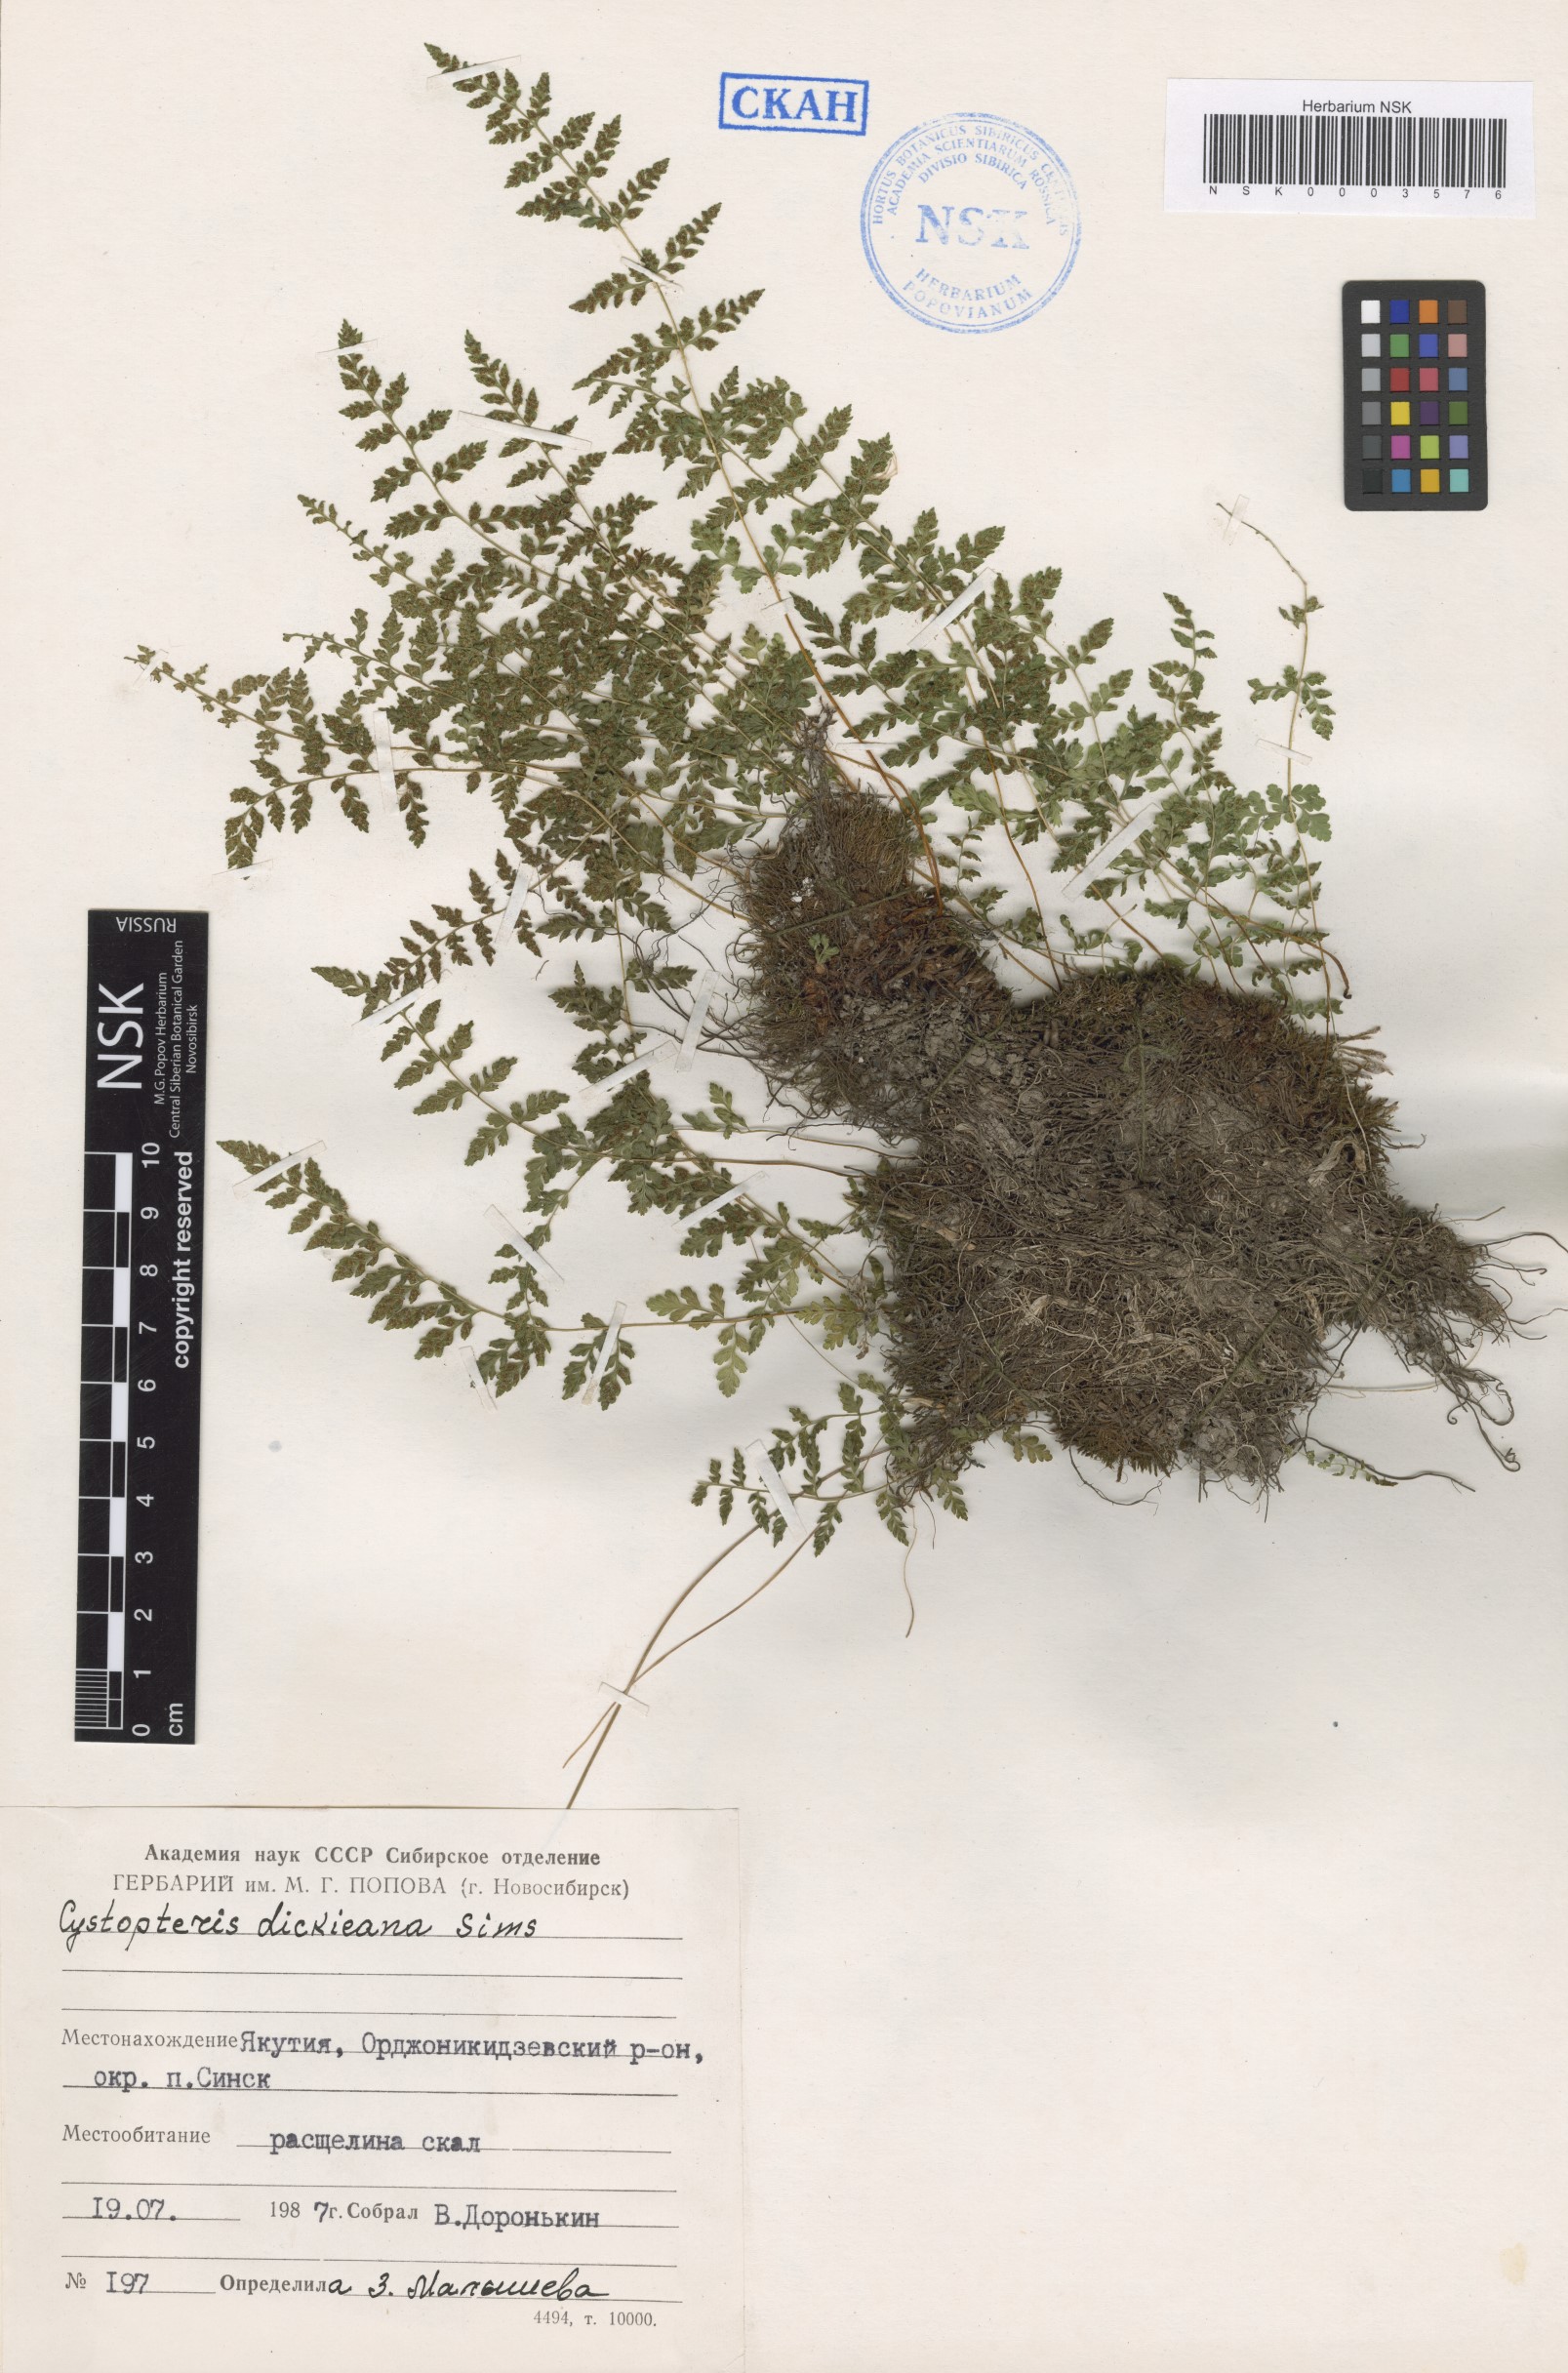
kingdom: Plantae
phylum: Tracheophyta
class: Polypodiopsida
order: Polypodiales
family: Cystopteridaceae
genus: Cystopteris
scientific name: Cystopteris dickieana
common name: Dickie's bladder-fern
